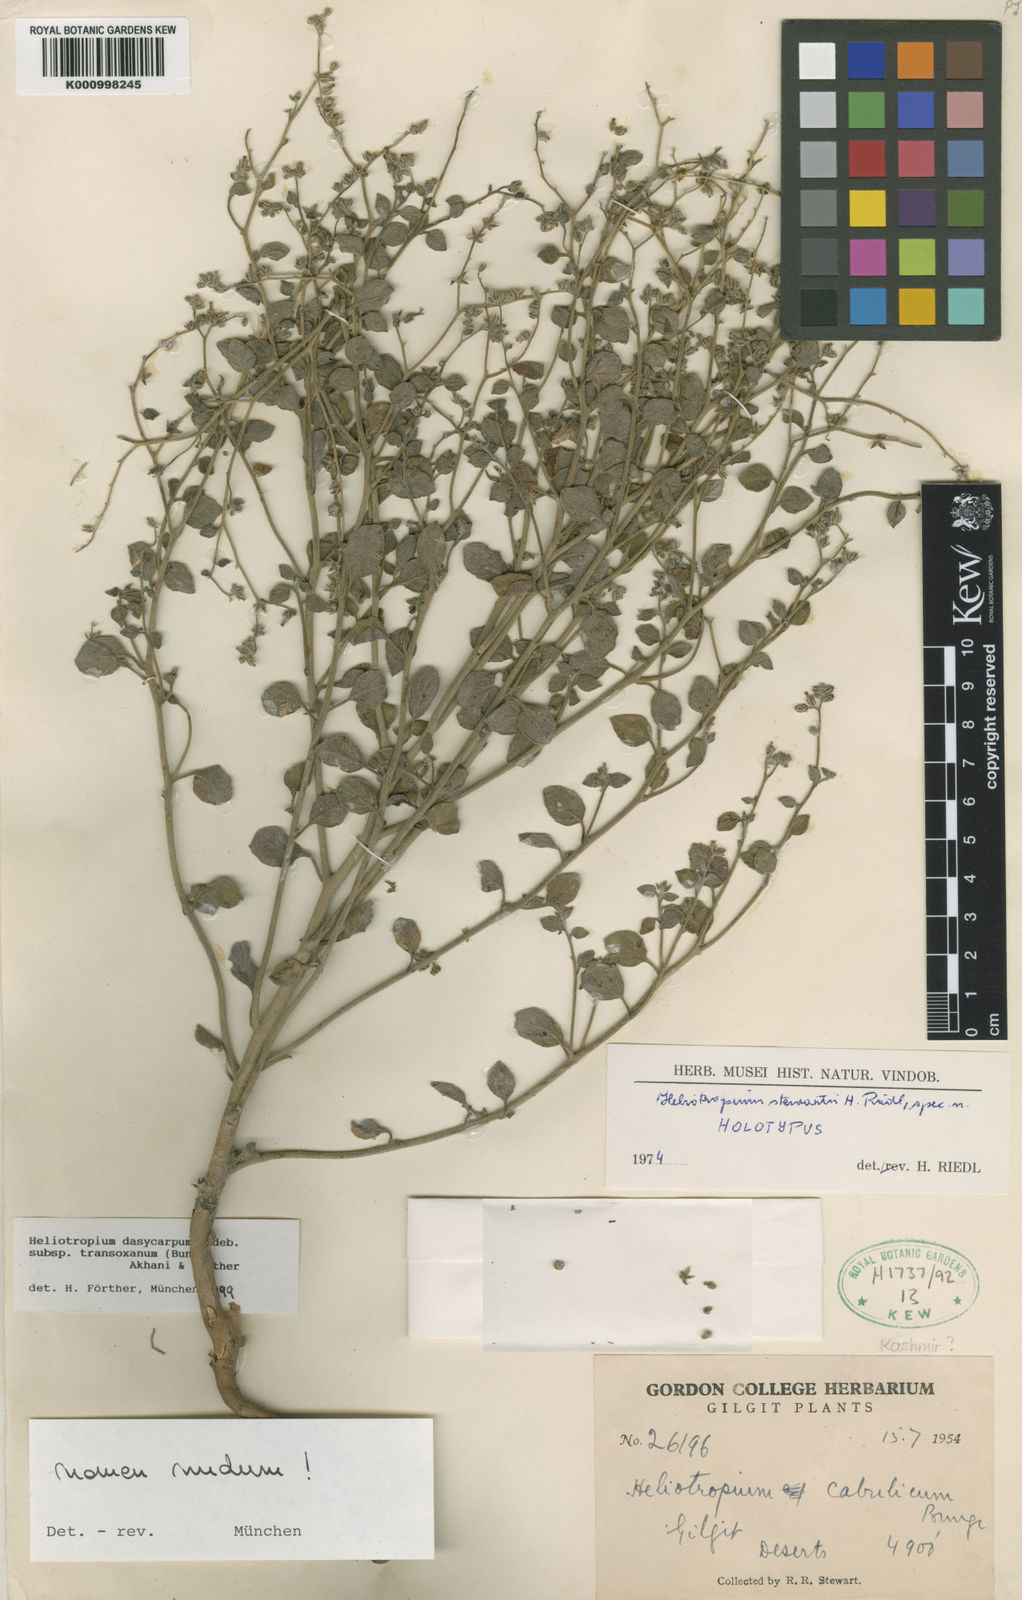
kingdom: Plantae
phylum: Tracheophyta
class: Magnoliopsida
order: Boraginales
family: Heliotropiaceae
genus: Heliotropium
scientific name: Heliotropium
